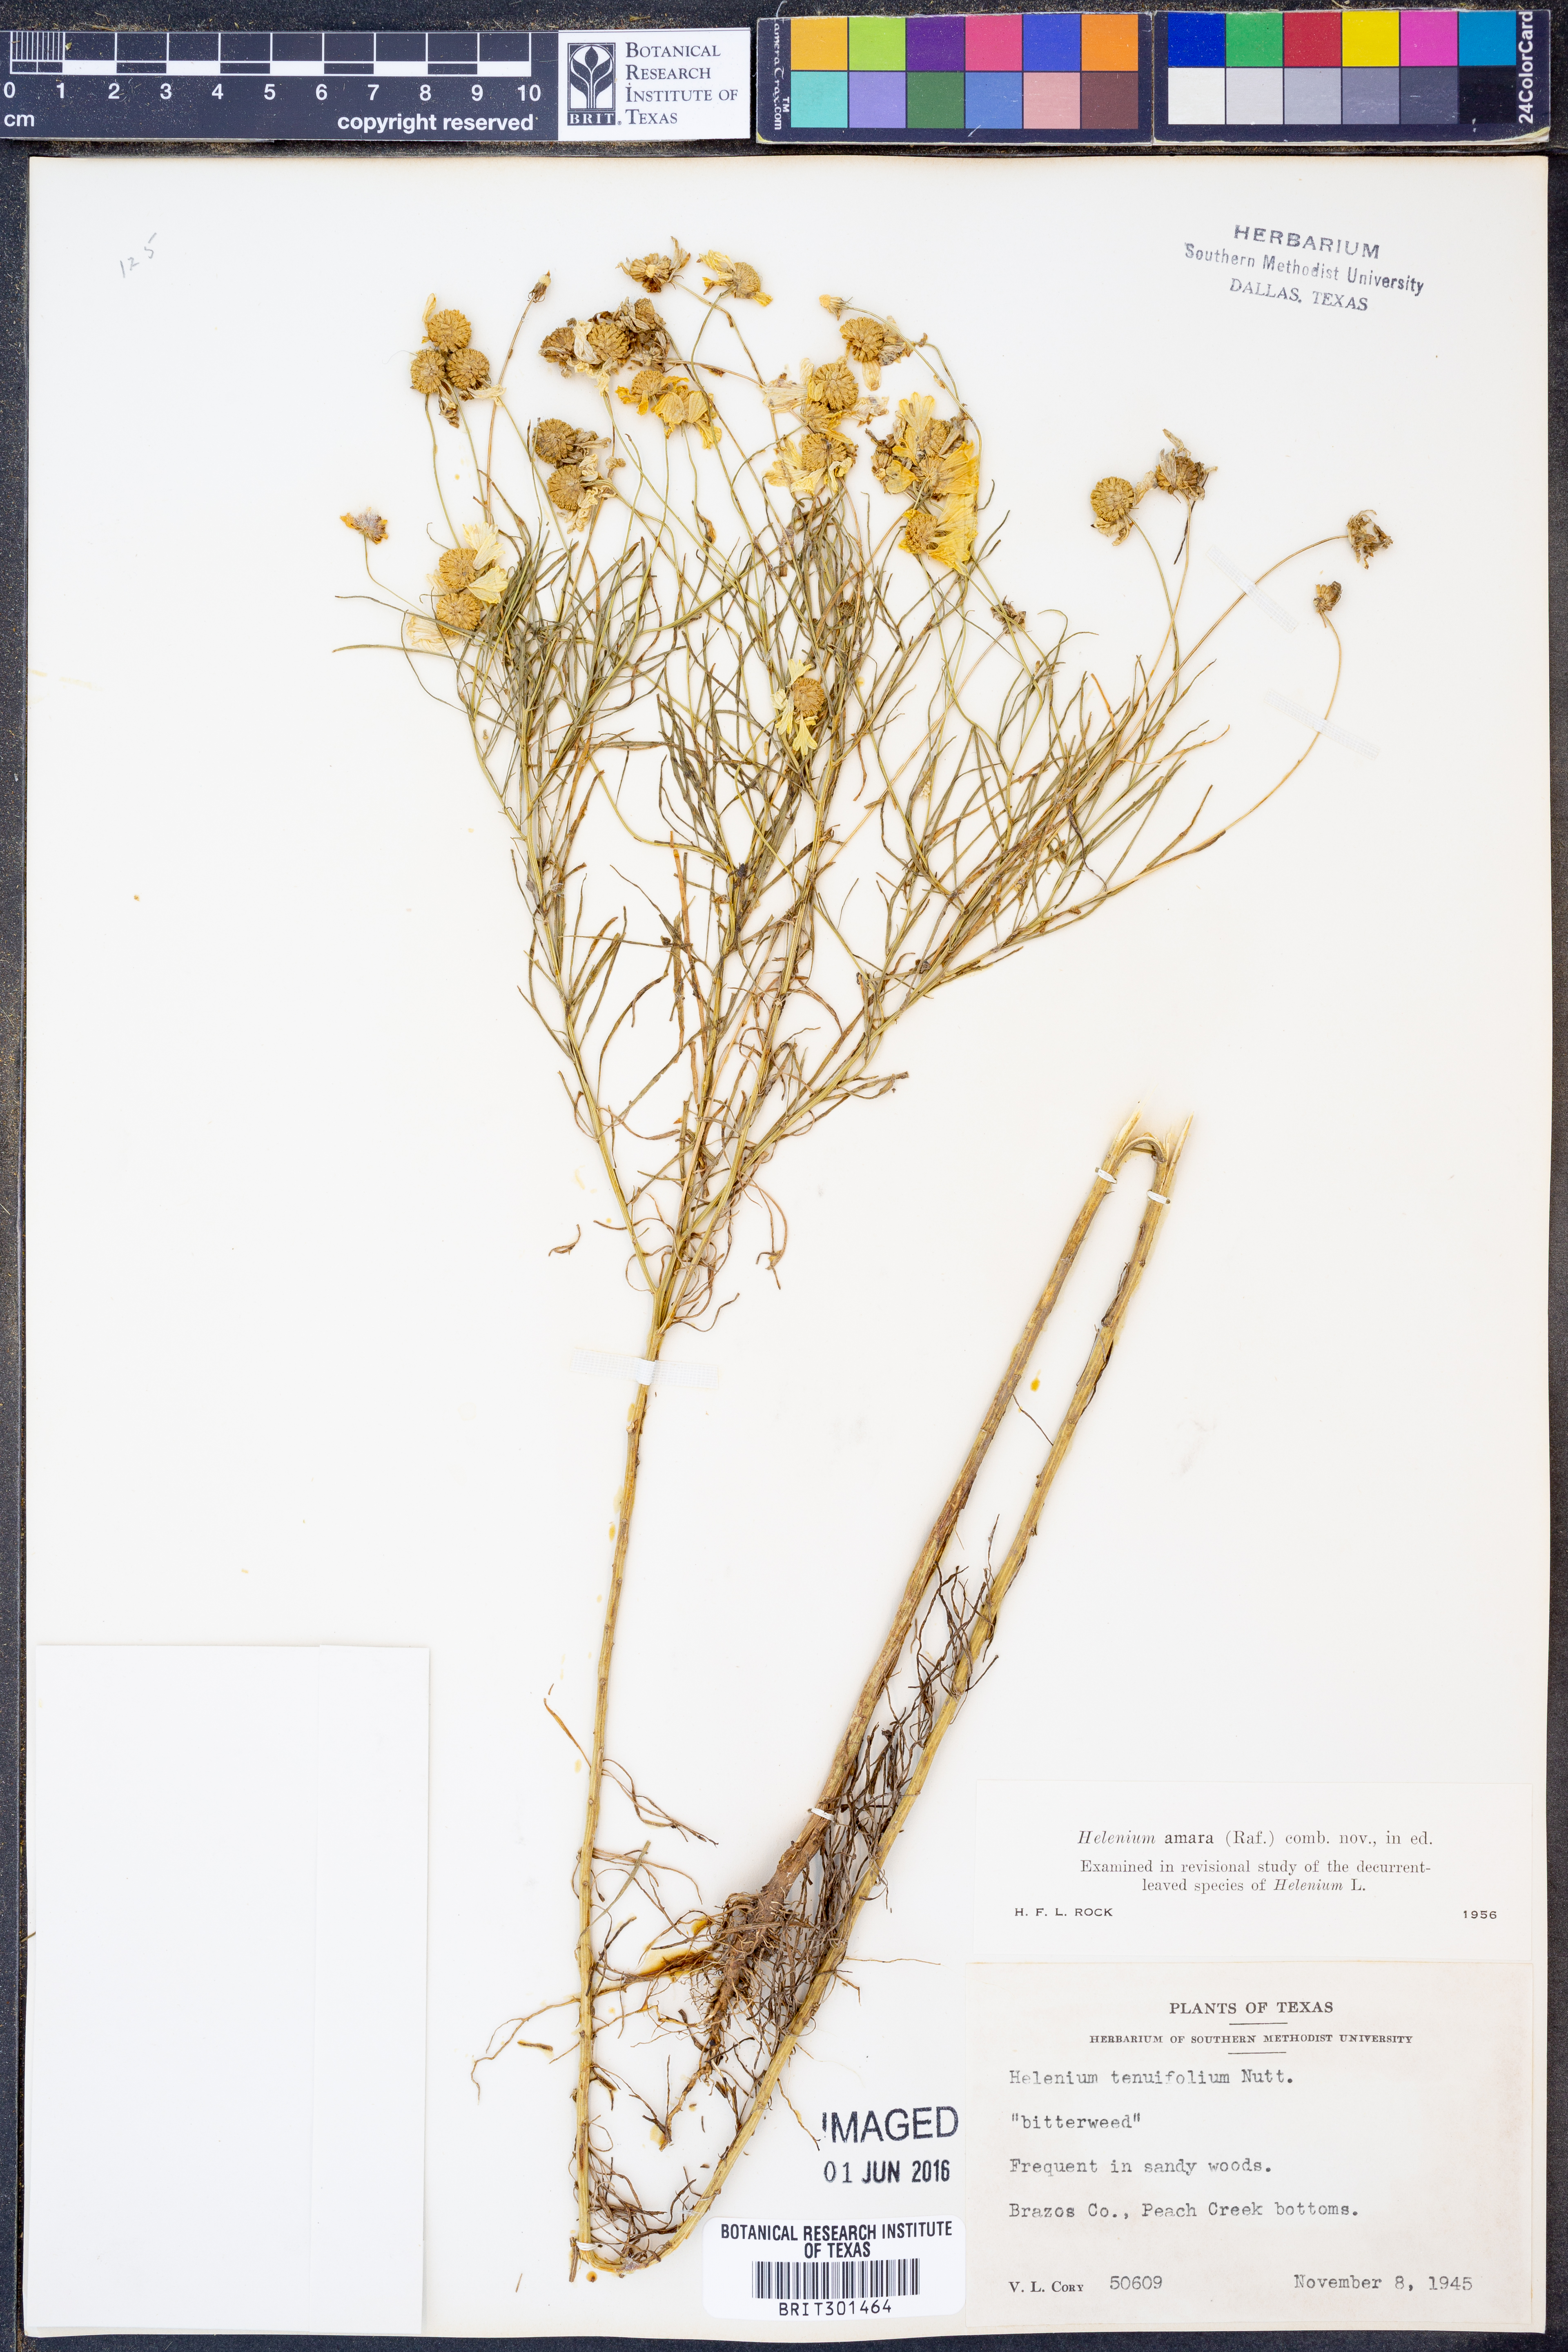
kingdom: Plantae
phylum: Tracheophyta
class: Magnoliopsida
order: Asterales
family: Asteraceae
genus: Helenium
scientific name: Helenium amarum
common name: Bitter sneezeweed
